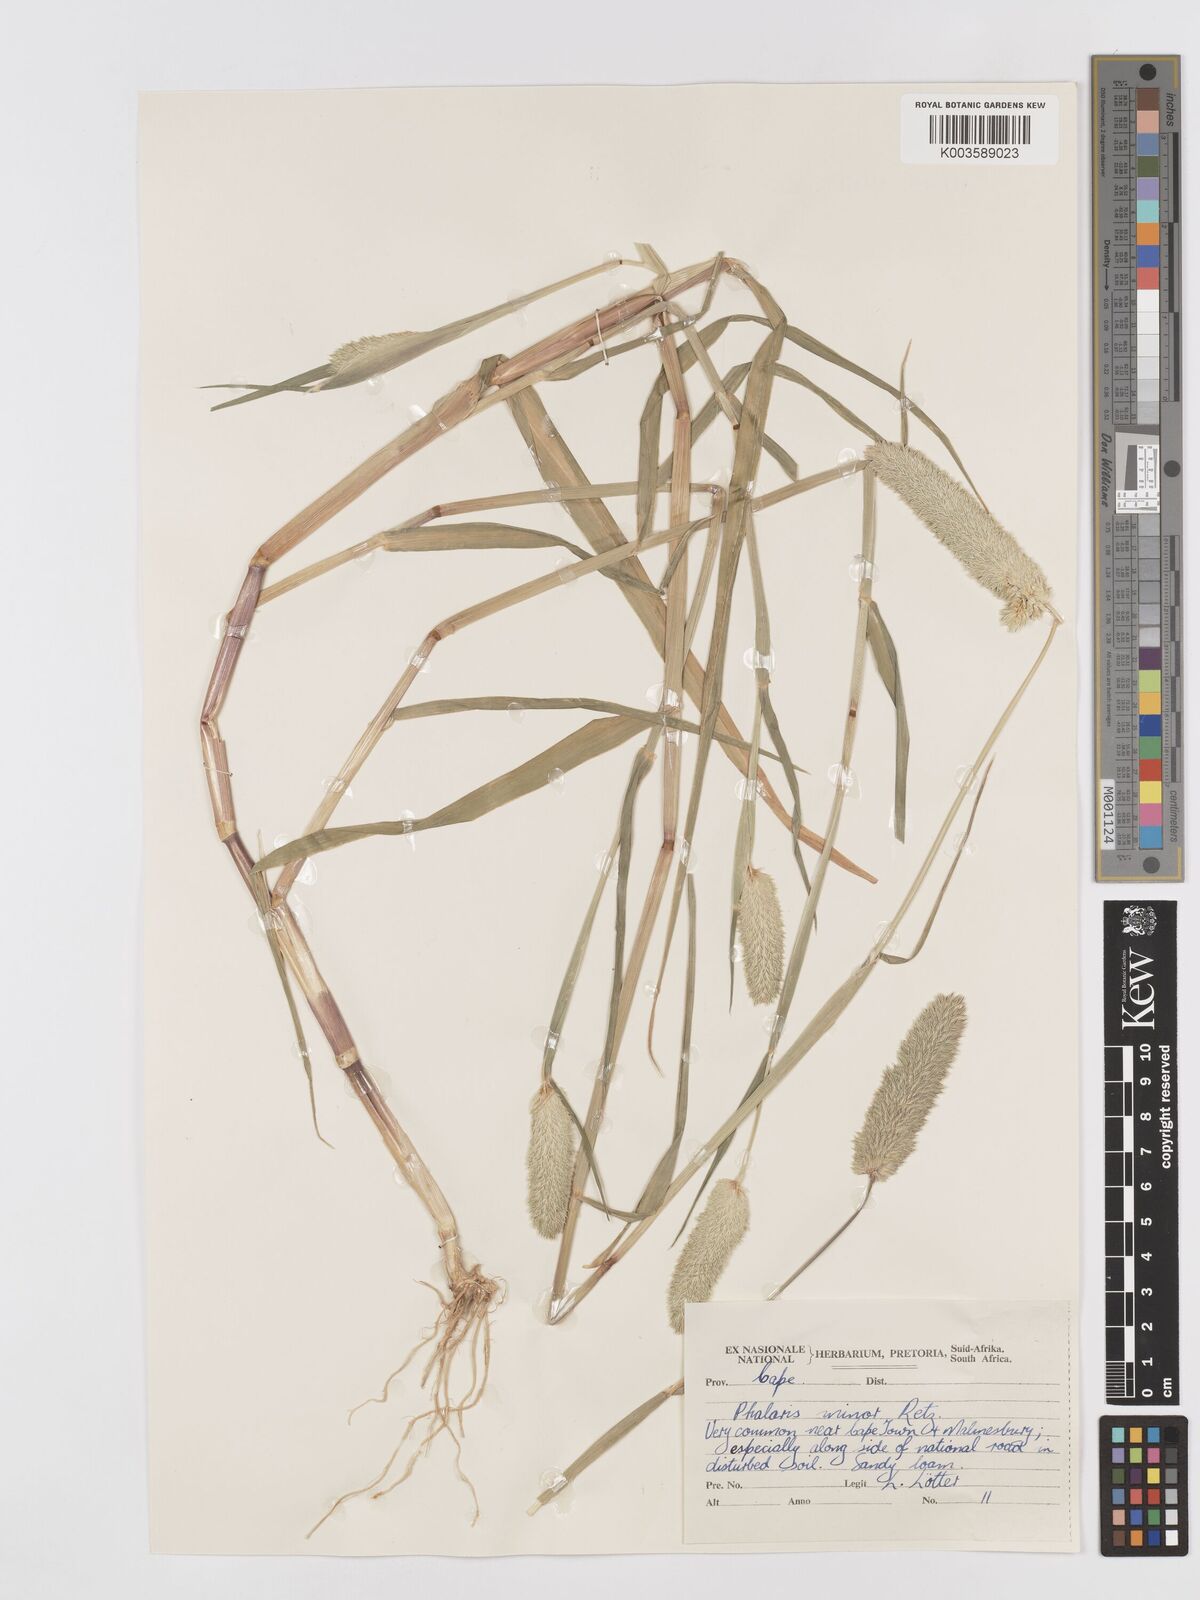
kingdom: Plantae
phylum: Tracheophyta
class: Liliopsida
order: Poales
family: Poaceae
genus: Phalaris
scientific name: Phalaris minor
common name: Littleseed canarygrass
